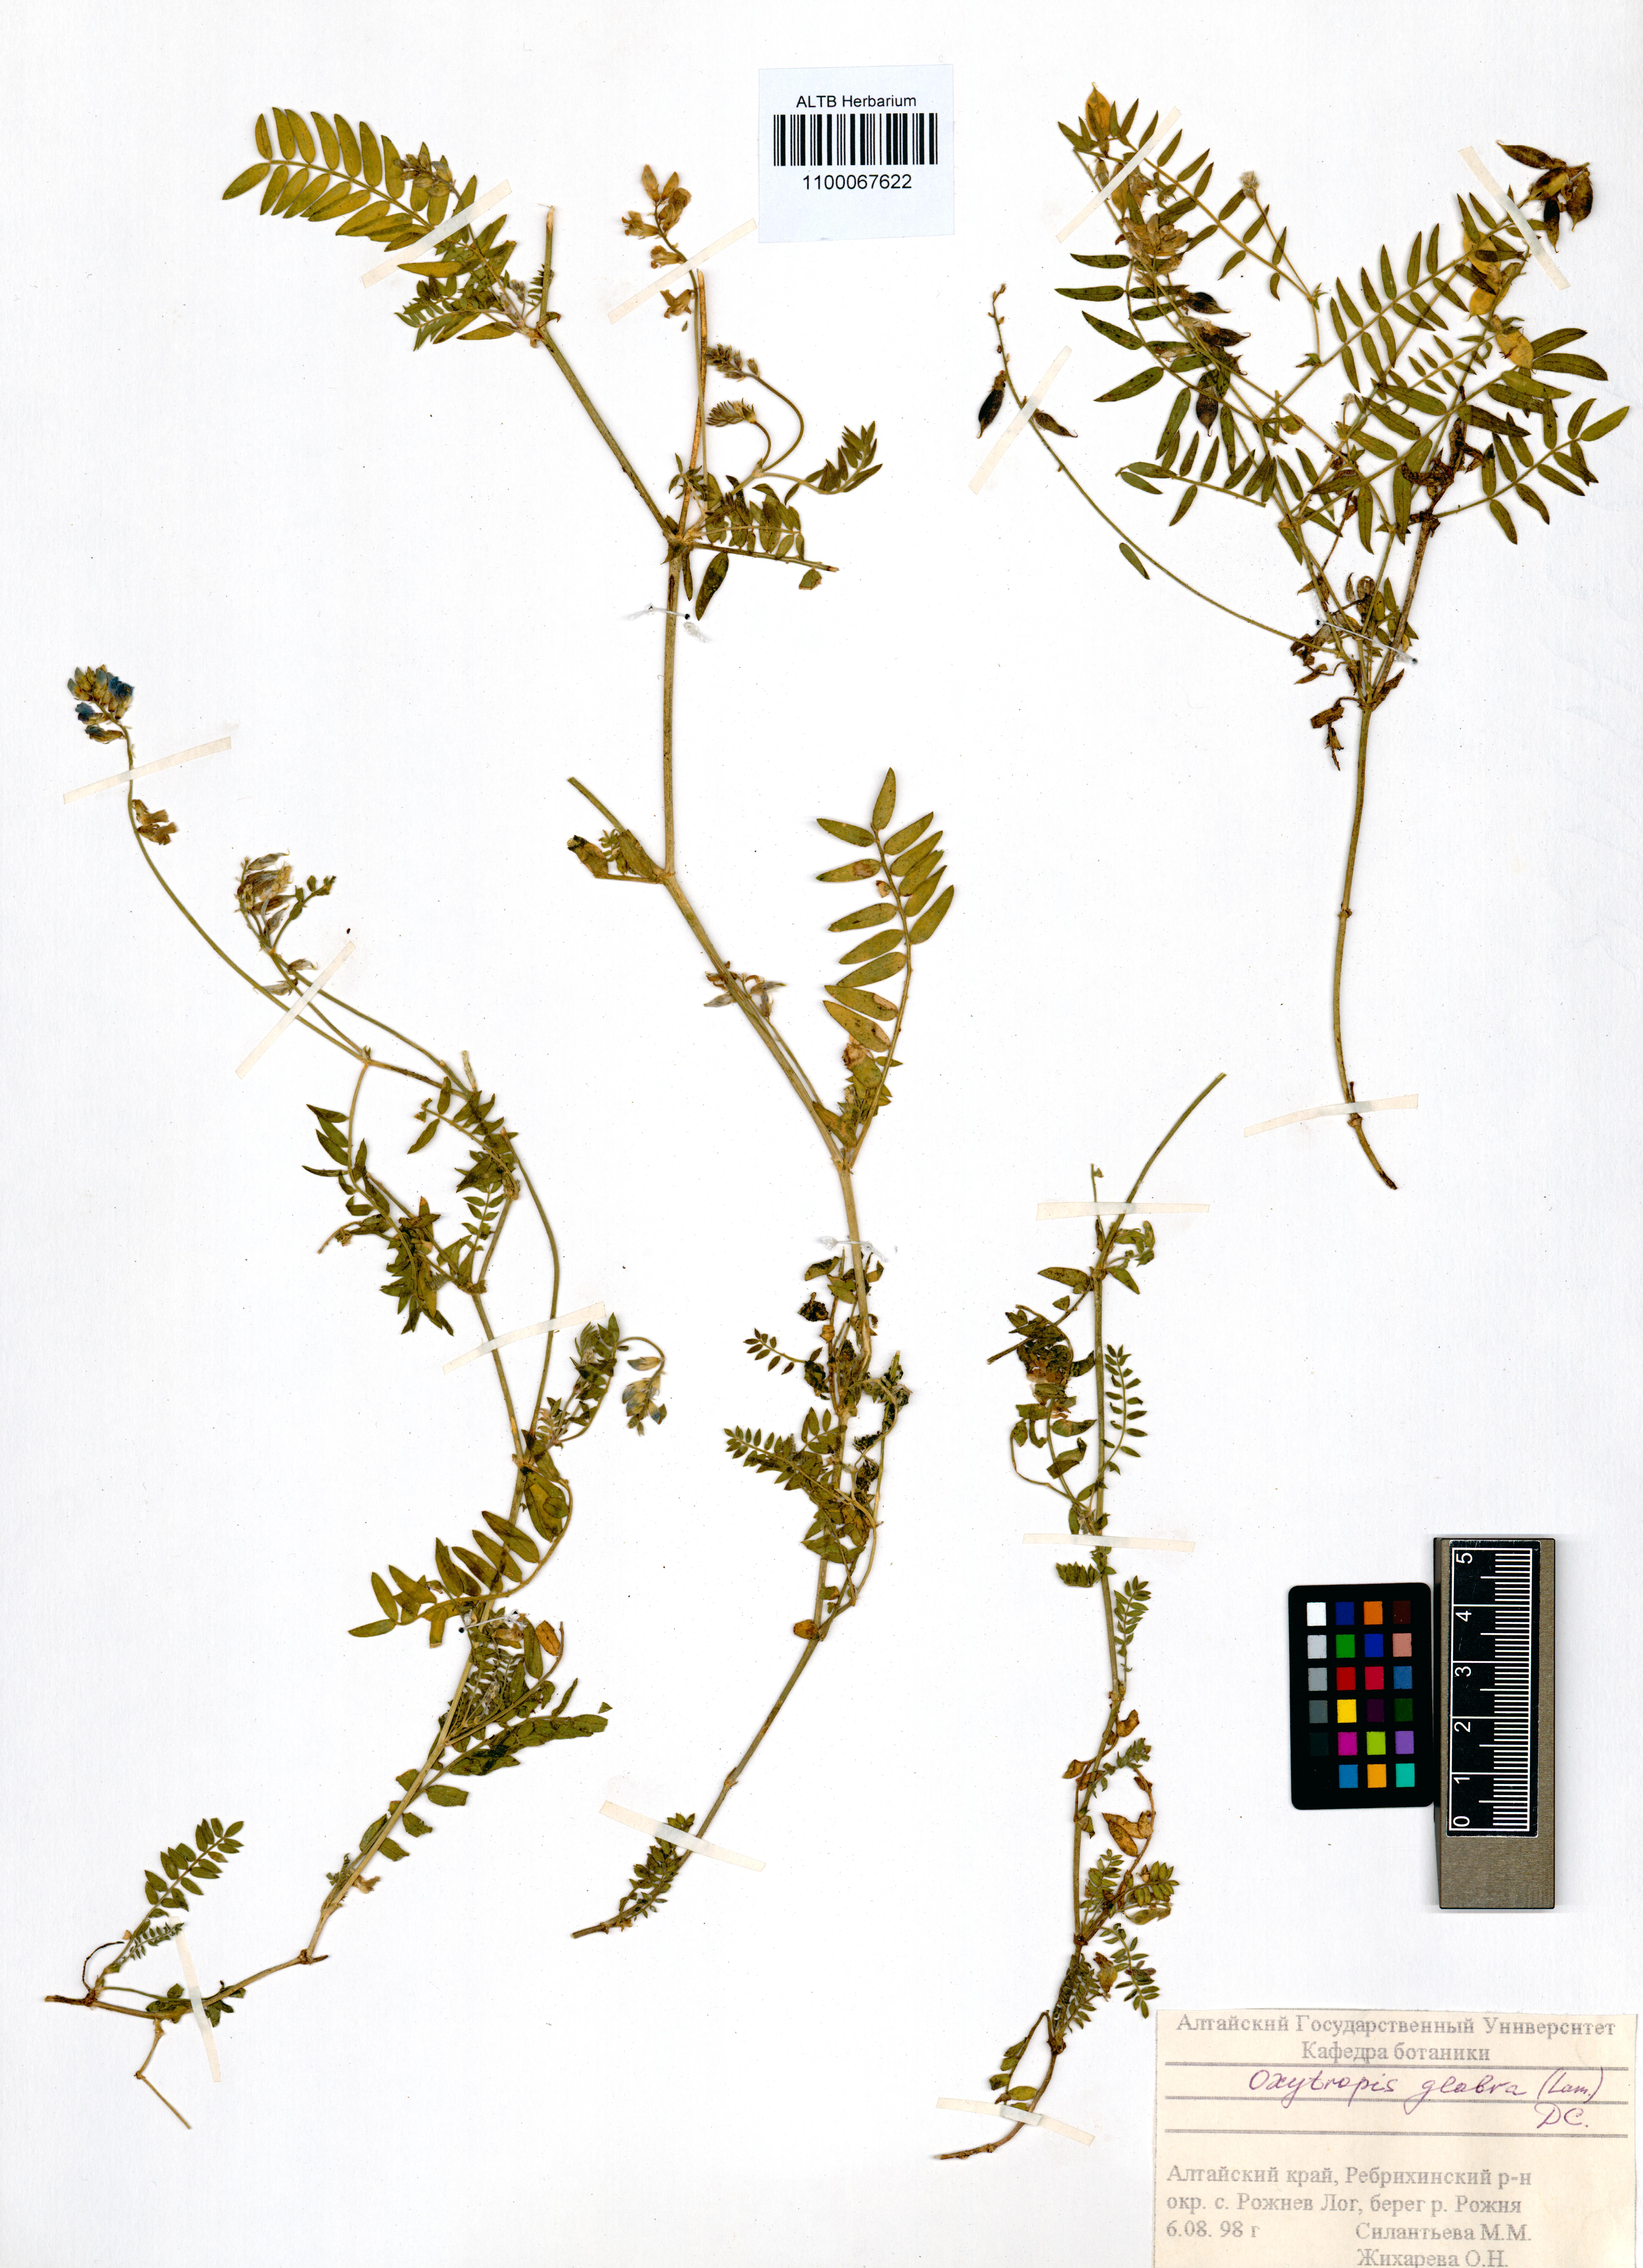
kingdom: Plantae
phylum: Tracheophyta
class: Magnoliopsida
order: Fabales
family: Fabaceae
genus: Oxytropis
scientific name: Oxytropis glabra
